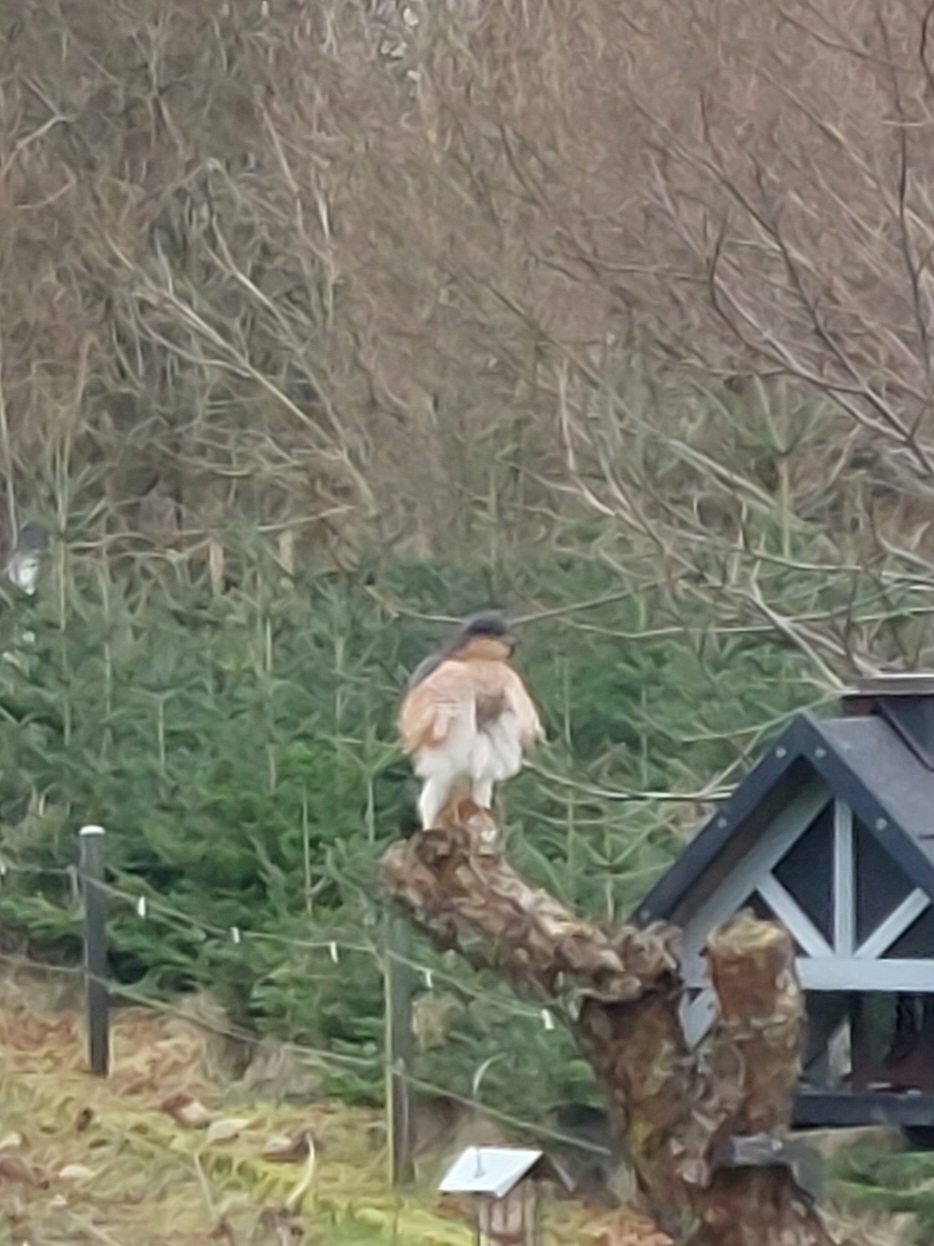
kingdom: Animalia
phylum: Chordata
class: Aves
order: Accipitriformes
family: Accipitridae
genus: Accipiter
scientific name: Accipiter nisus
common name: Spurvehøg
